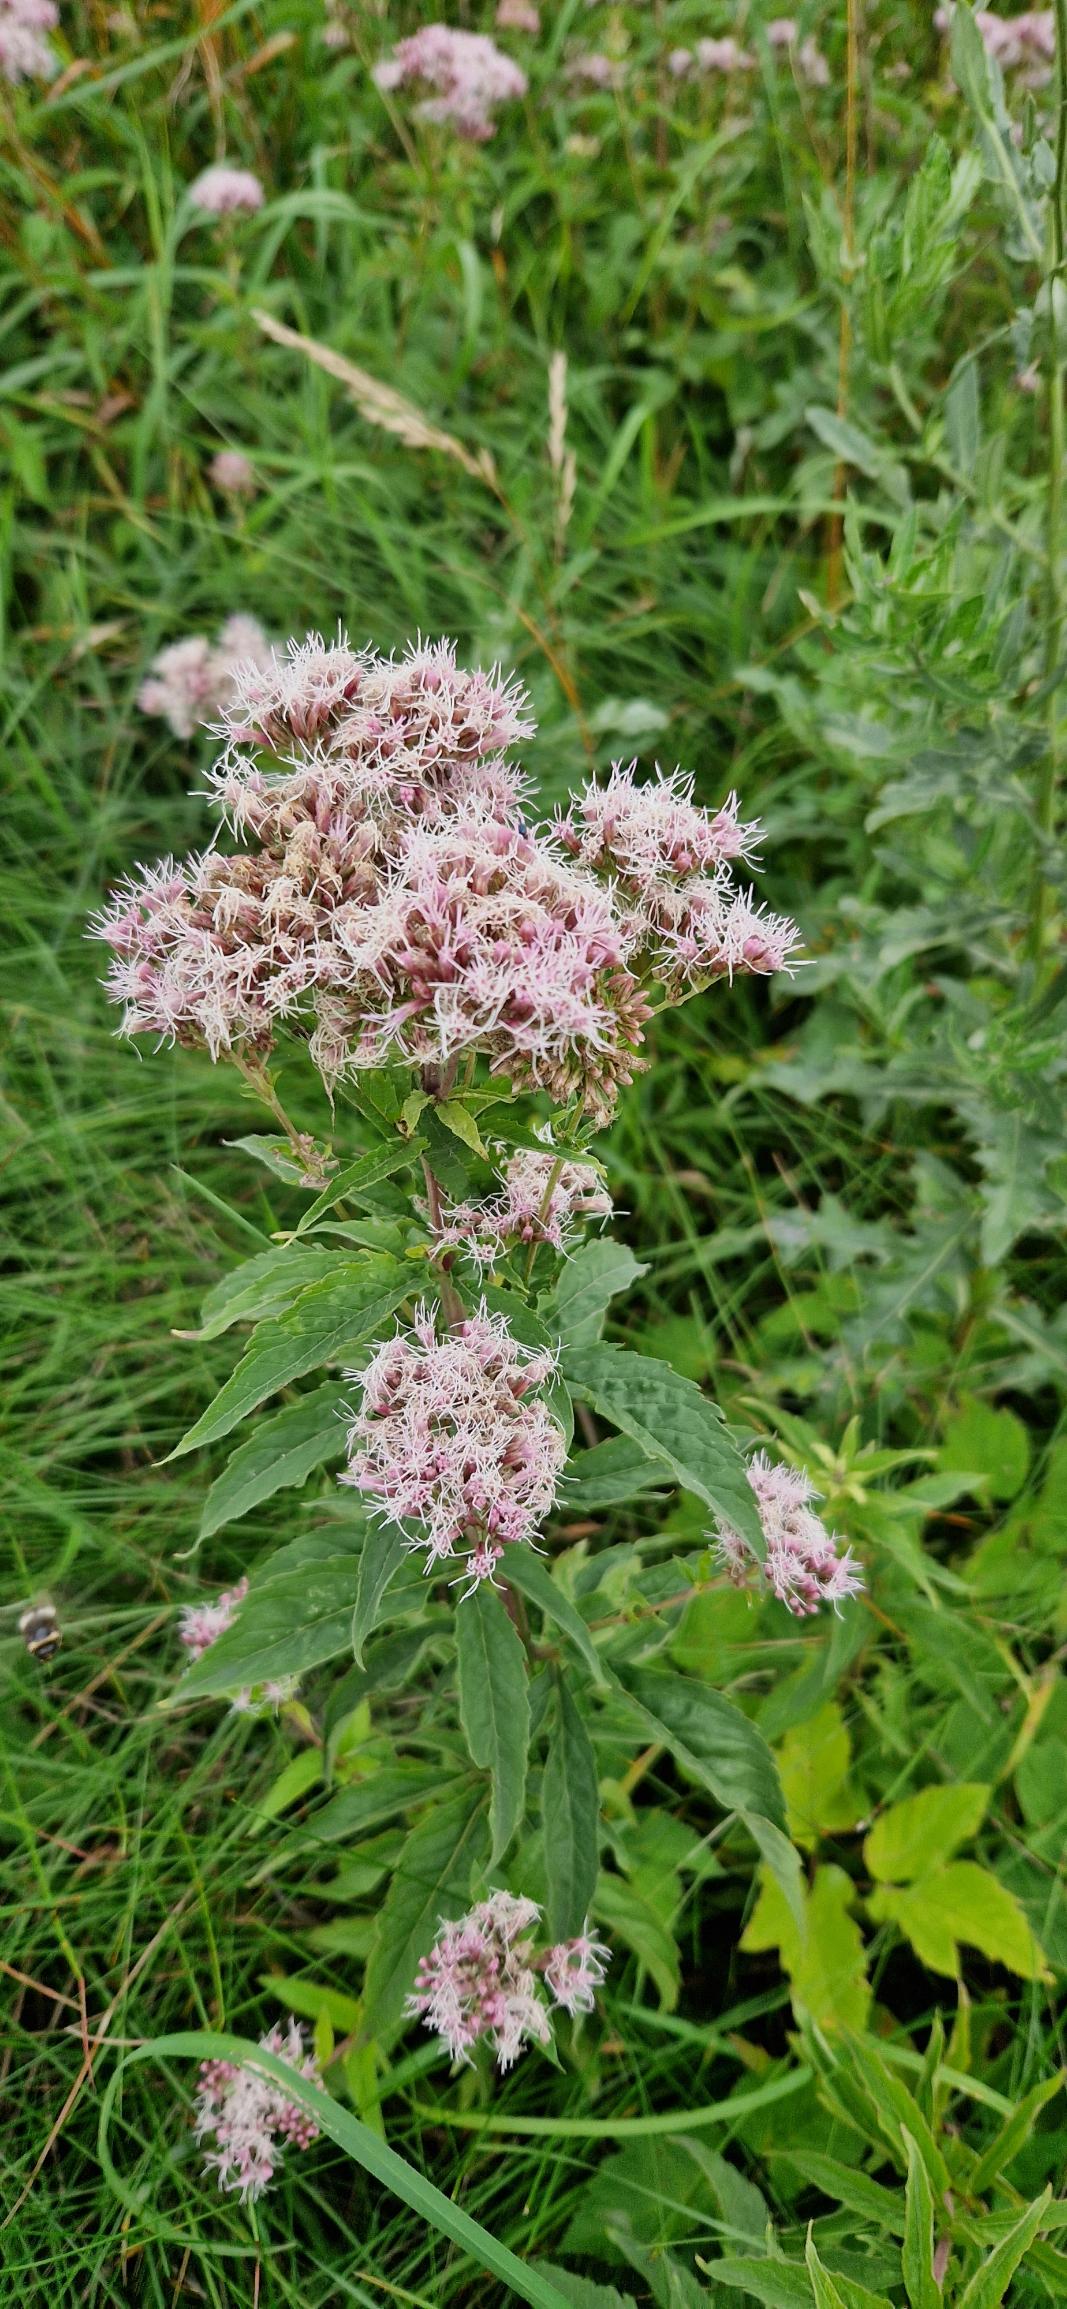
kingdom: Plantae
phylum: Tracheophyta
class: Magnoliopsida
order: Asterales
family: Asteraceae
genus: Eupatorium
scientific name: Eupatorium cannabinum
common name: Hjortetrøst
